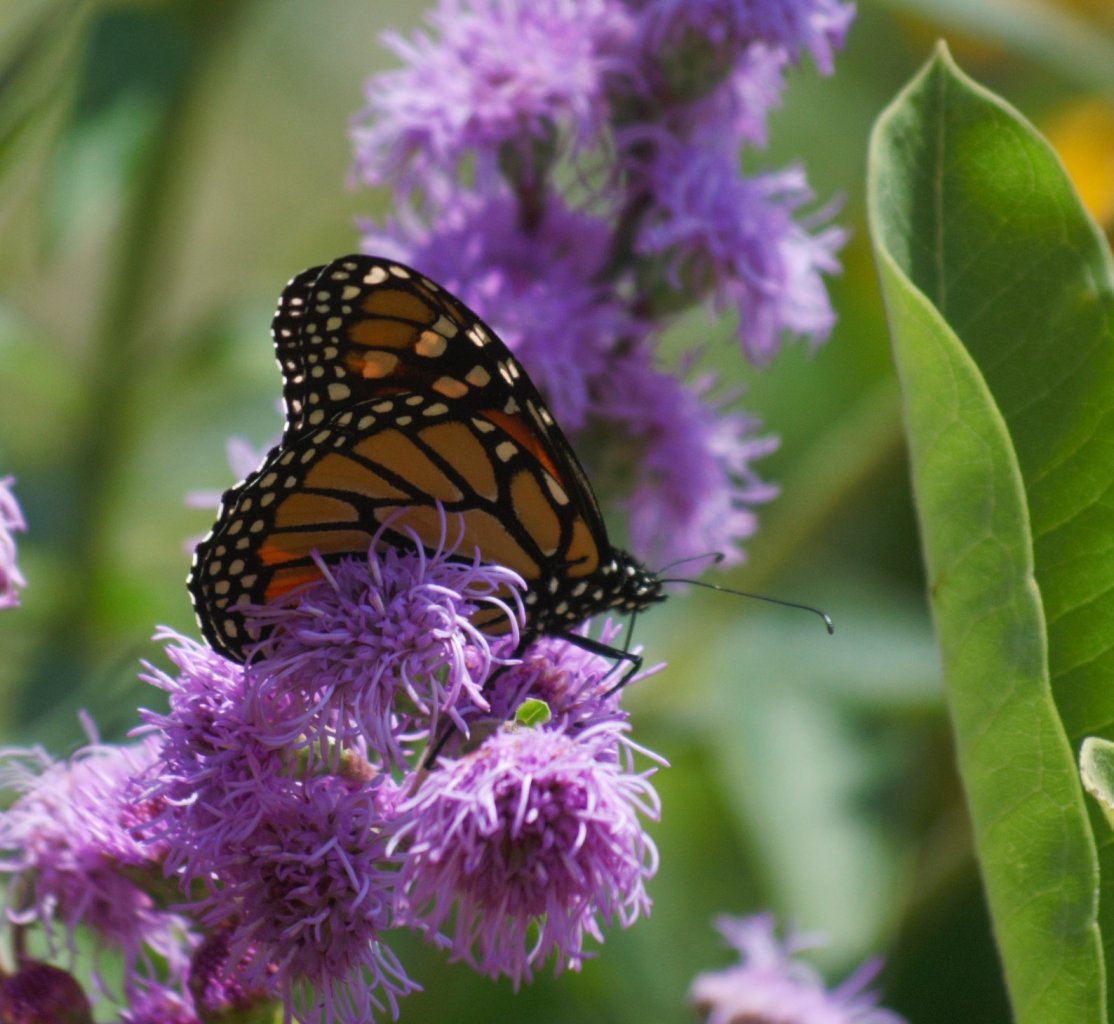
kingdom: Animalia
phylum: Arthropoda
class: Insecta
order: Lepidoptera
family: Nymphalidae
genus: Danaus
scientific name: Danaus plexippus
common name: Monarch
